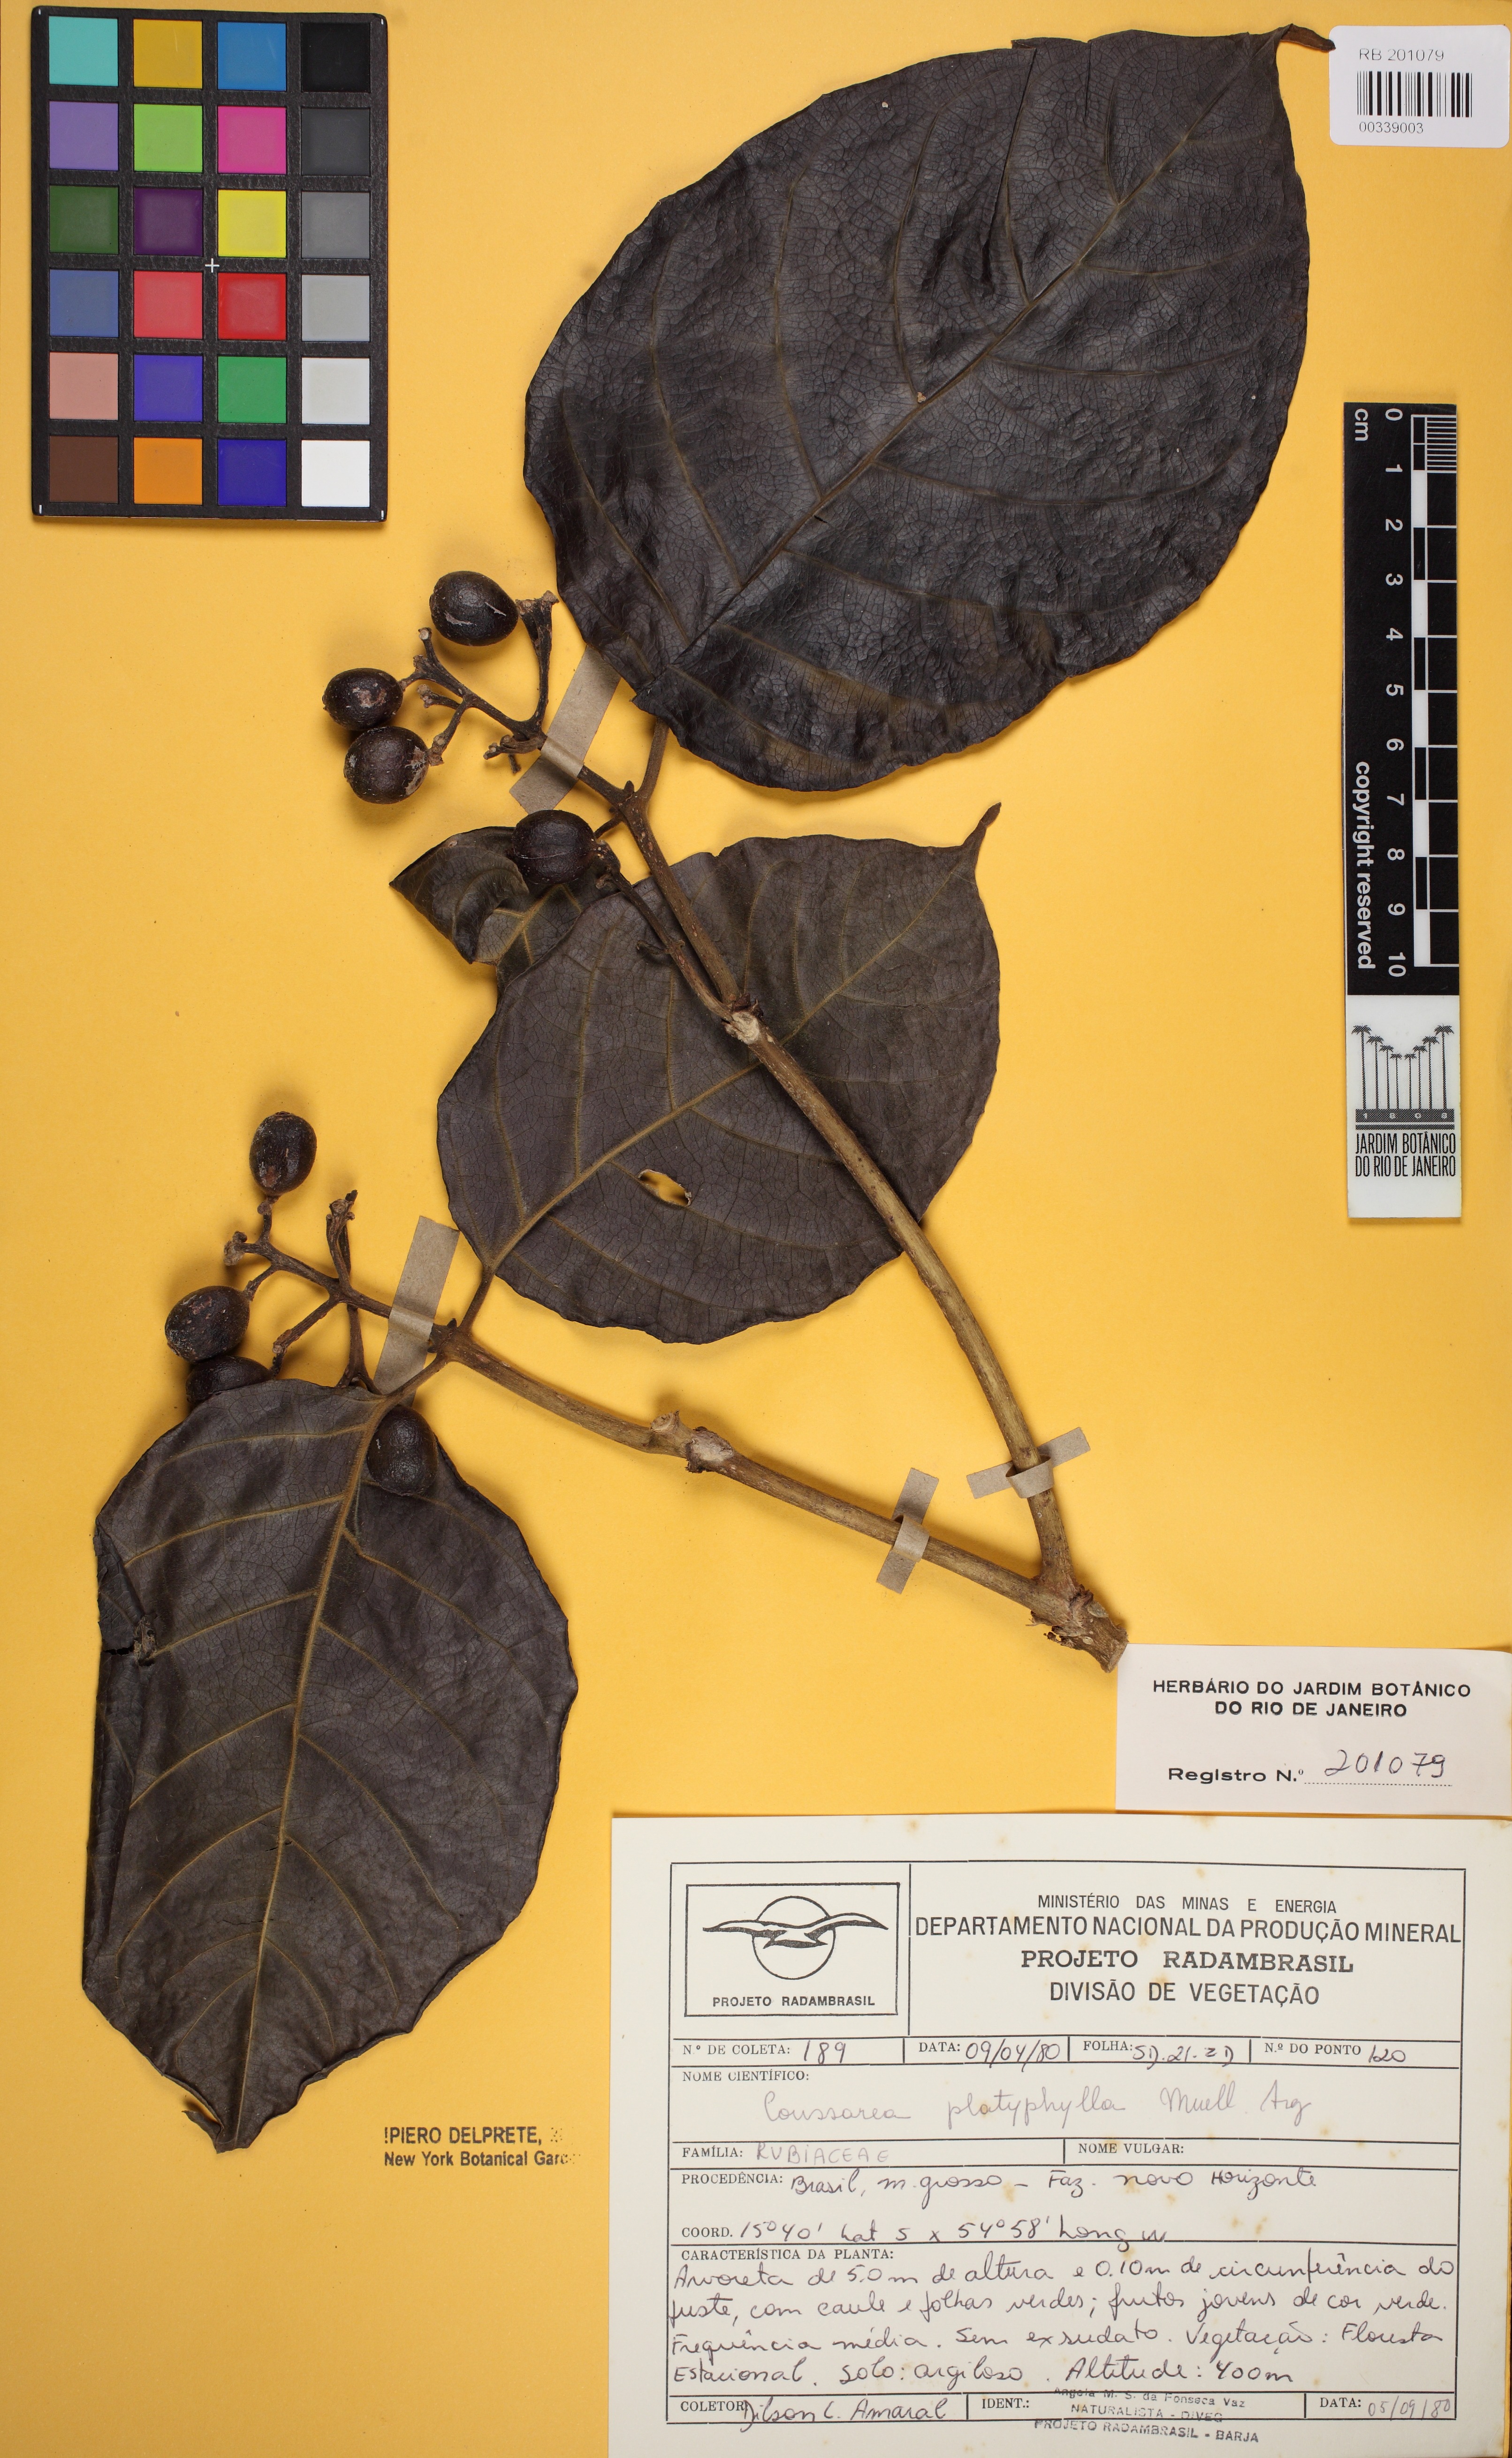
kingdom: Plantae
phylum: Tracheophyta
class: Magnoliopsida
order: Gentianales
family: Rubiaceae
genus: Coussarea
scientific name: Coussarea platyphylla
